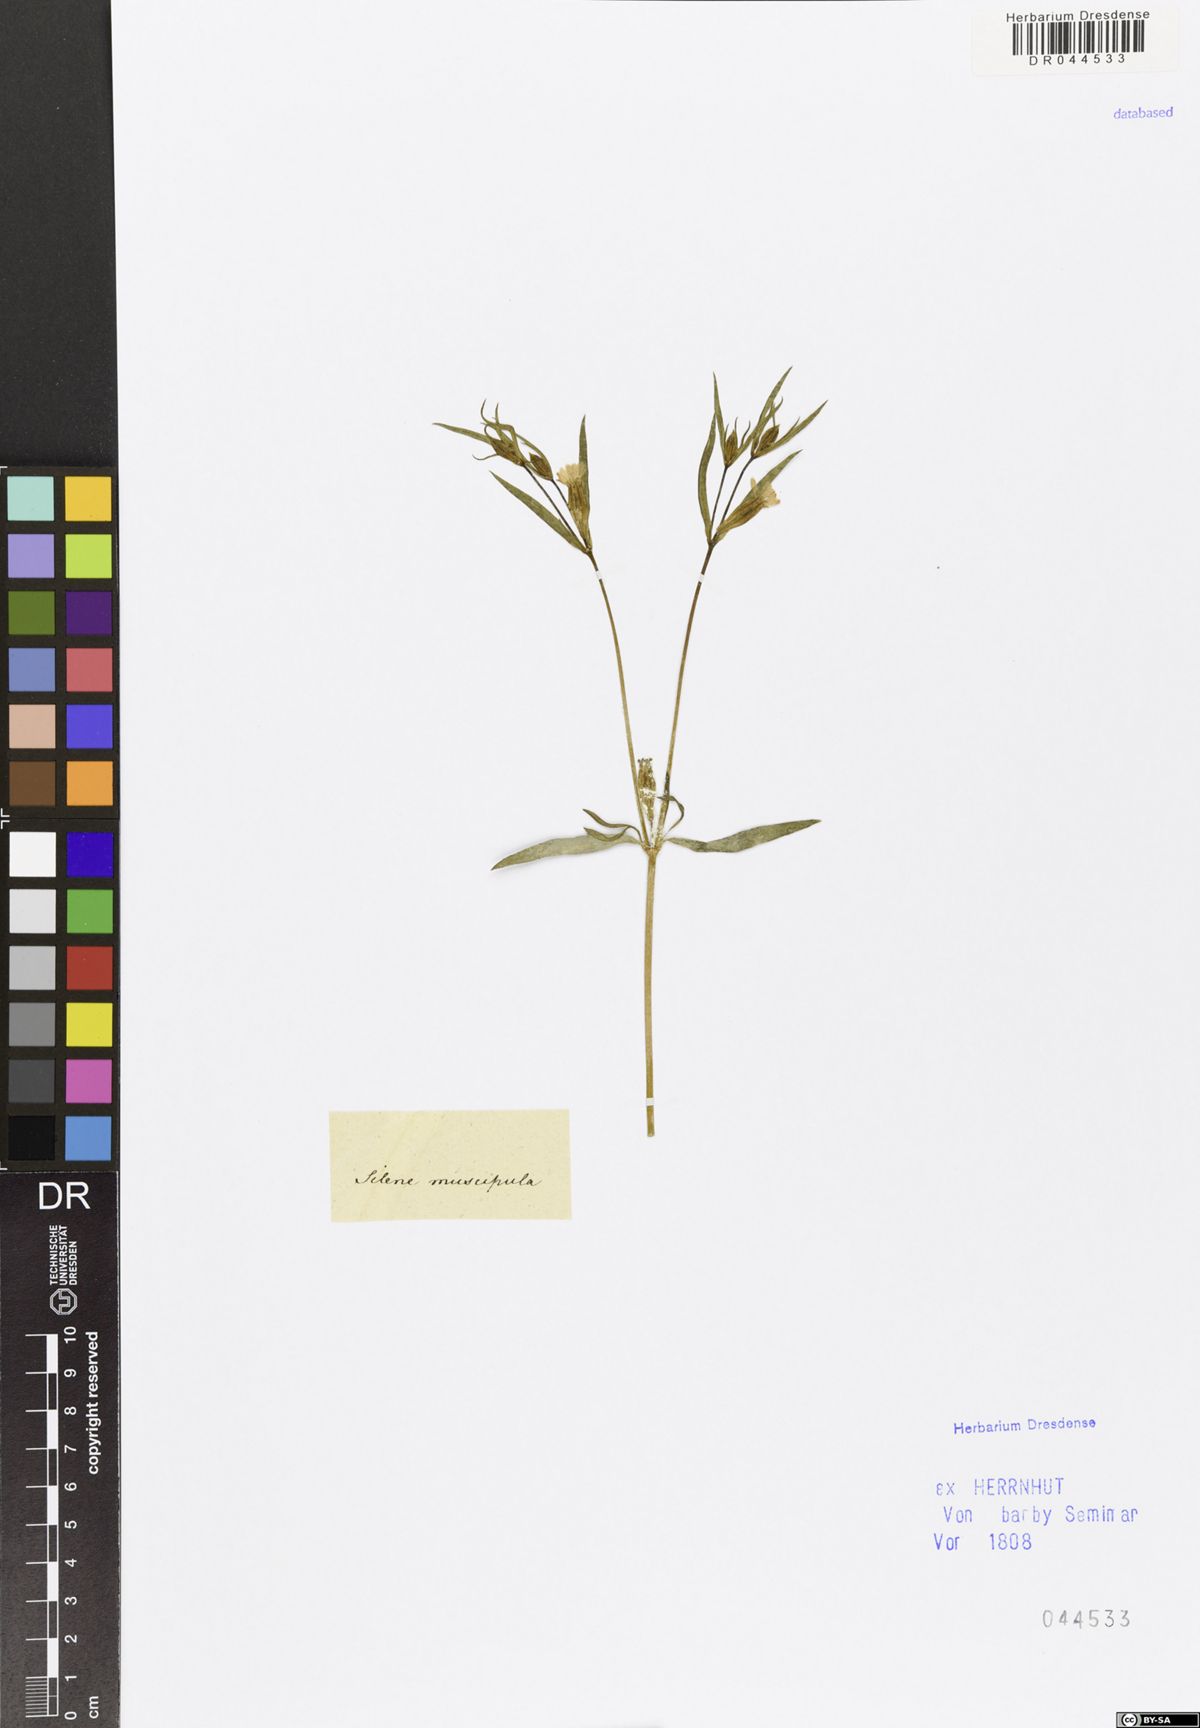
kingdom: Plantae
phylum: Tracheophyta
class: Magnoliopsida
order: Caryophyllales
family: Caryophyllaceae
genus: Silene
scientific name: Silene muscipula
